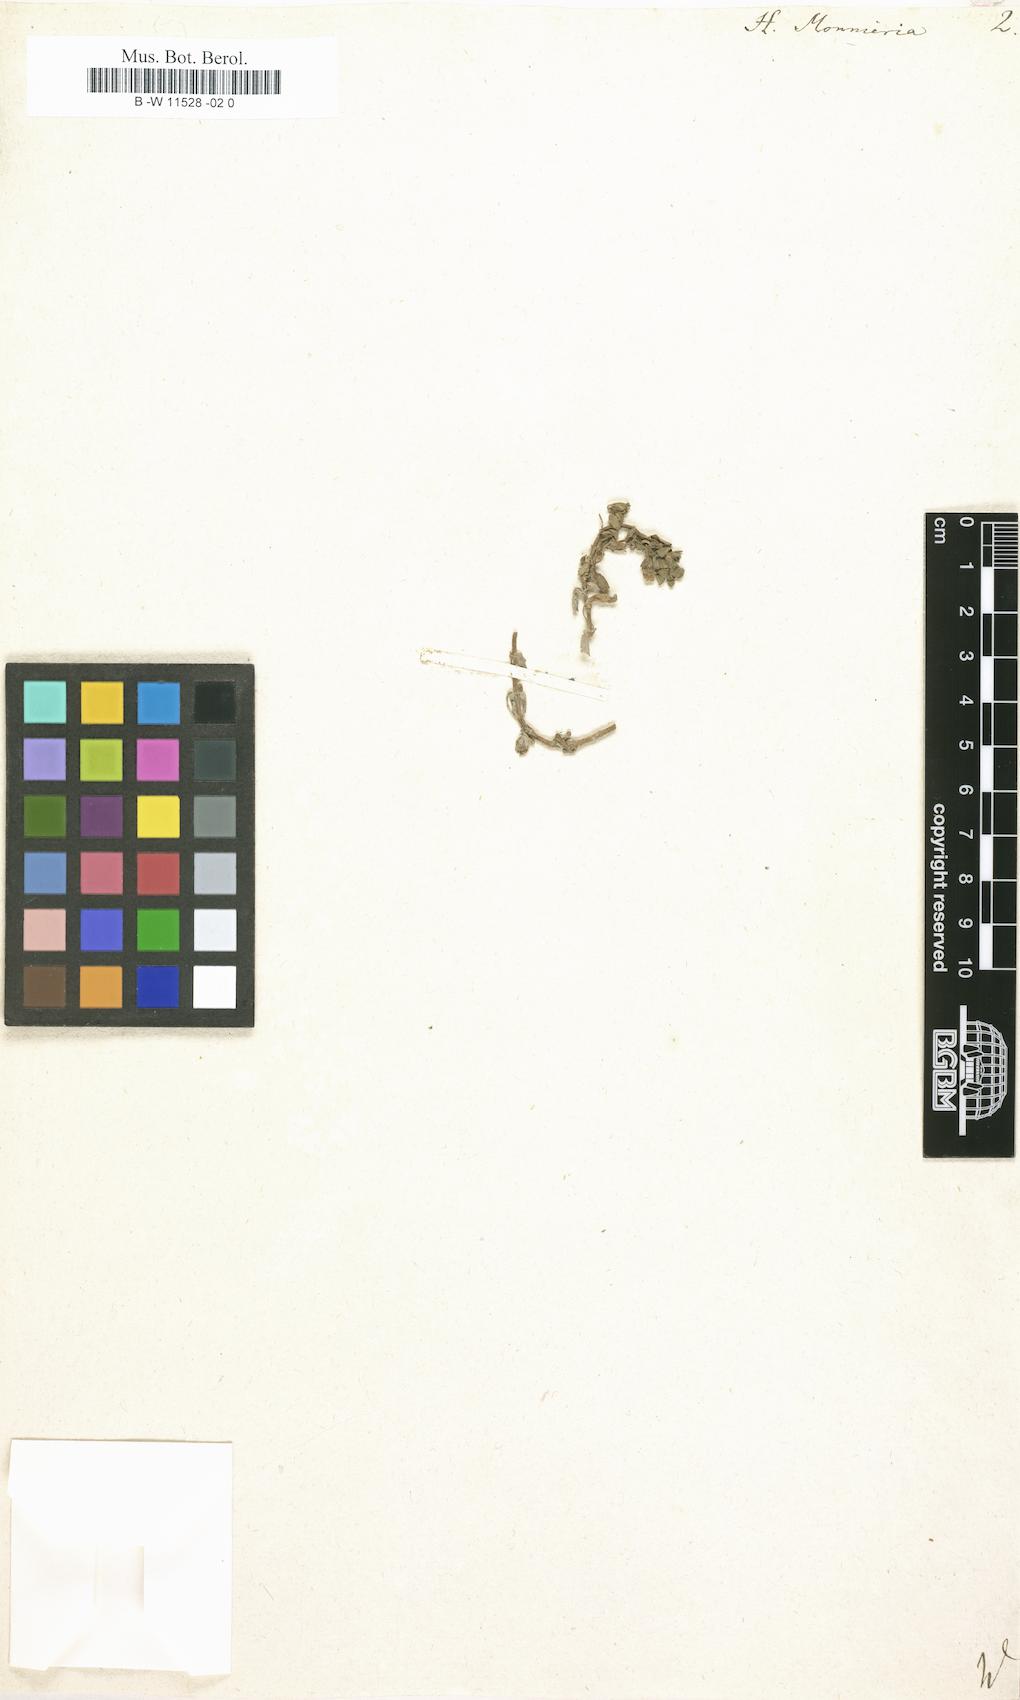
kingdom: Plantae
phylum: Tracheophyta
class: Magnoliopsida
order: Lamiales
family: Plantaginaceae
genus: Bacopa
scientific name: Bacopa monnieri
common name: Indian-pennywort
